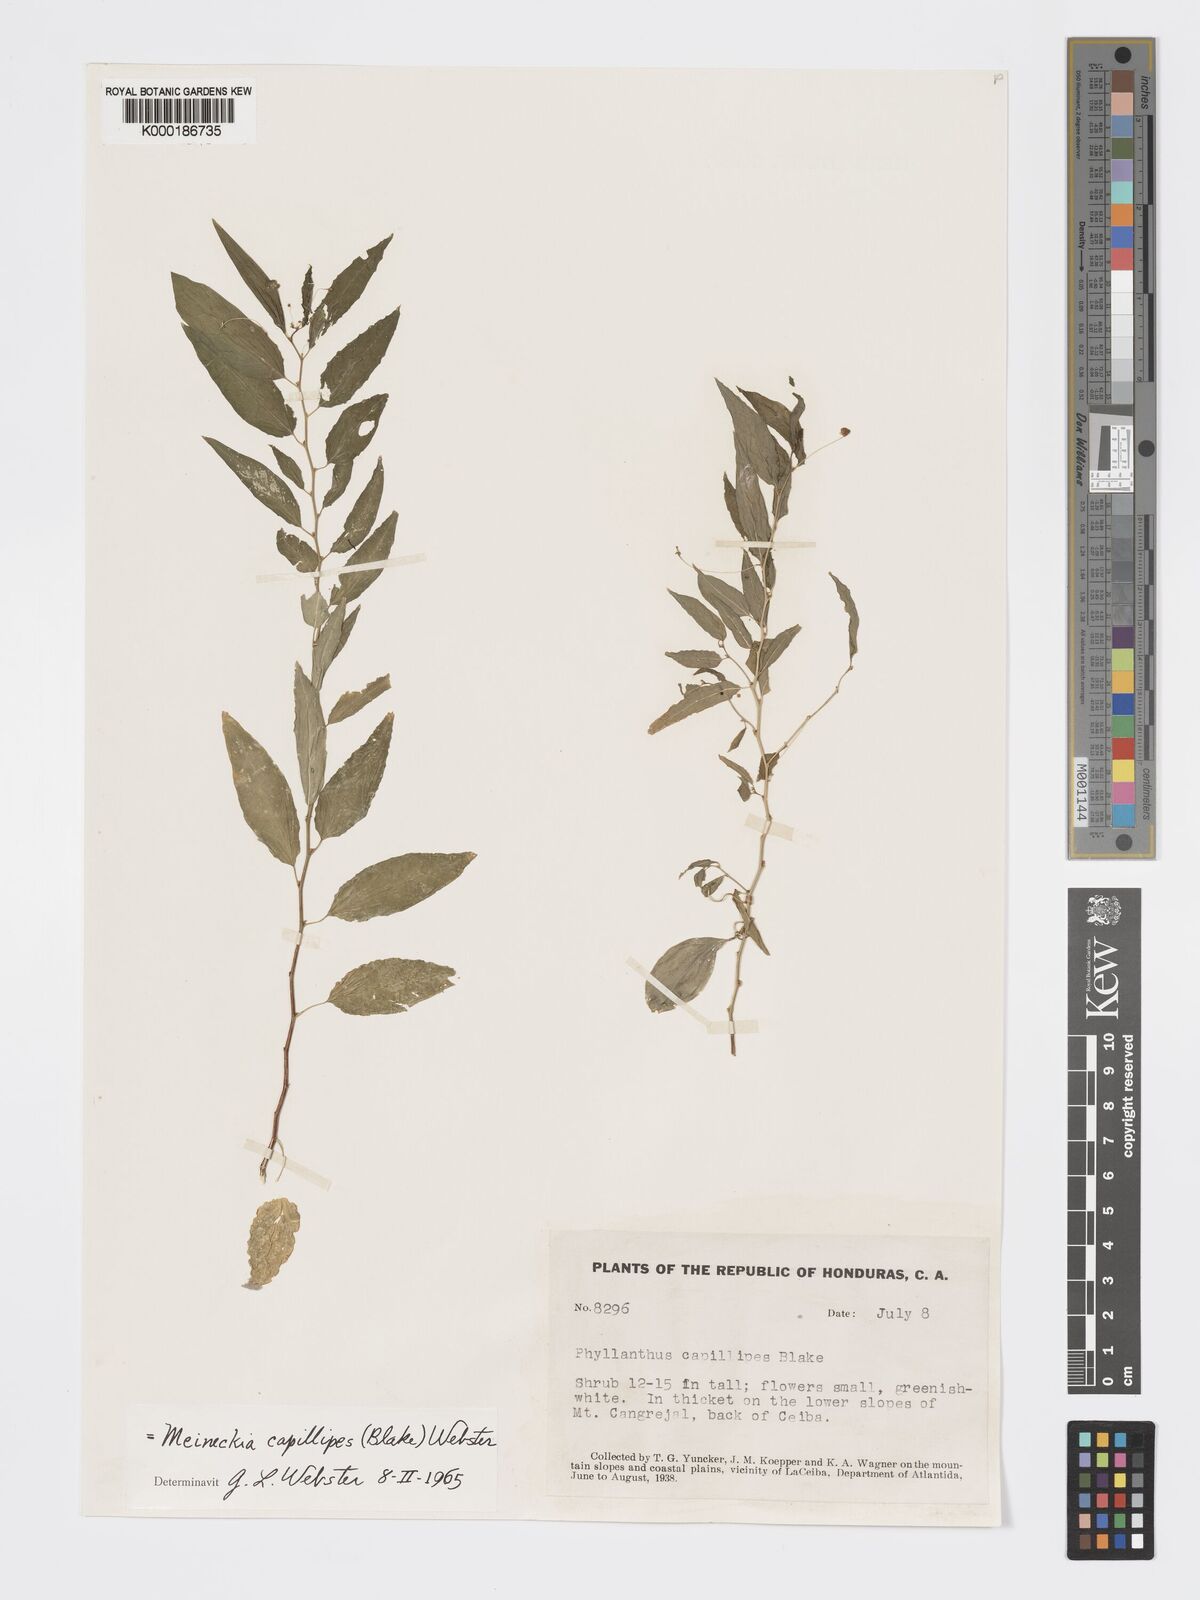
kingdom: Plantae
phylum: Tracheophyta
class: Magnoliopsida
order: Malpighiales
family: Phyllanthaceae
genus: Meineckia
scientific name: Meineckia capillipes
